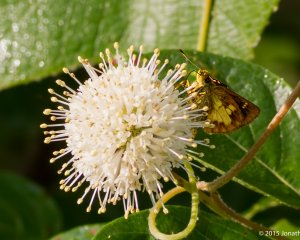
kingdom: Animalia
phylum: Arthropoda
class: Insecta
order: Lepidoptera
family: Hesperiidae
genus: Poanes
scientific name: Poanes massasoit
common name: Mulberry Wing
